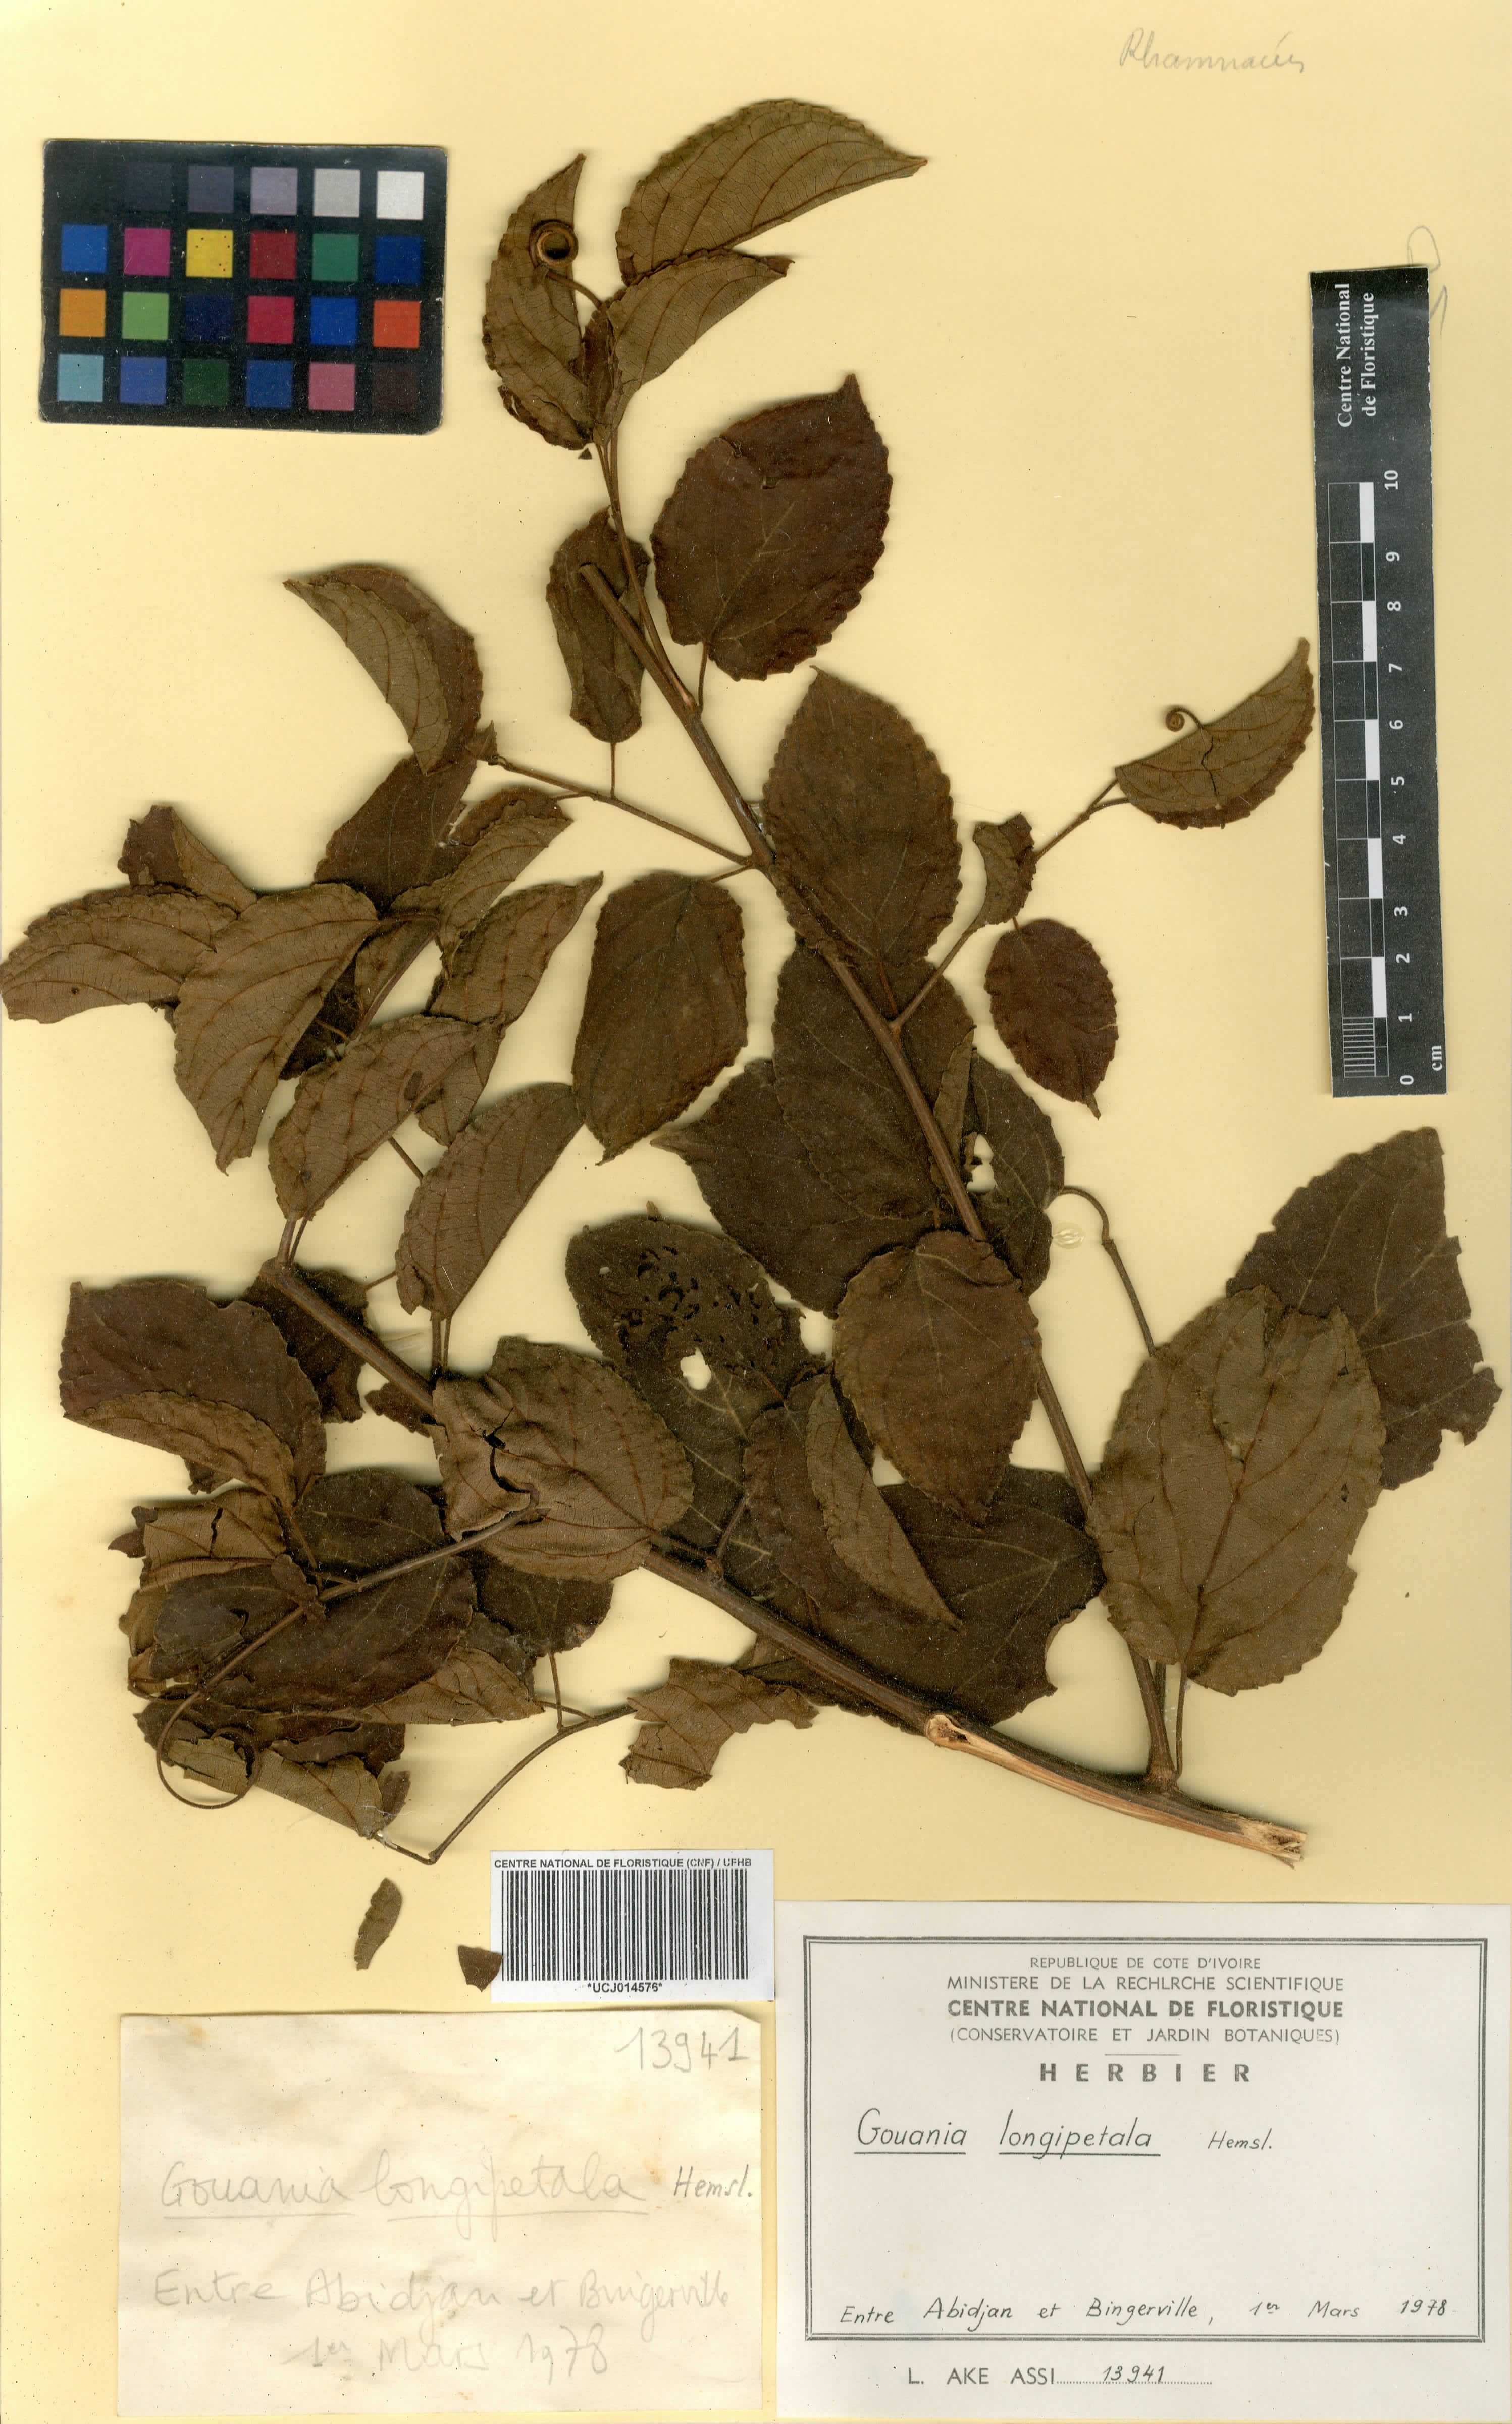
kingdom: Plantae
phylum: Tracheophyta
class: Magnoliopsida
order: Rosales
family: Rhamnaceae
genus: Gouania
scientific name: Gouania longipetala
